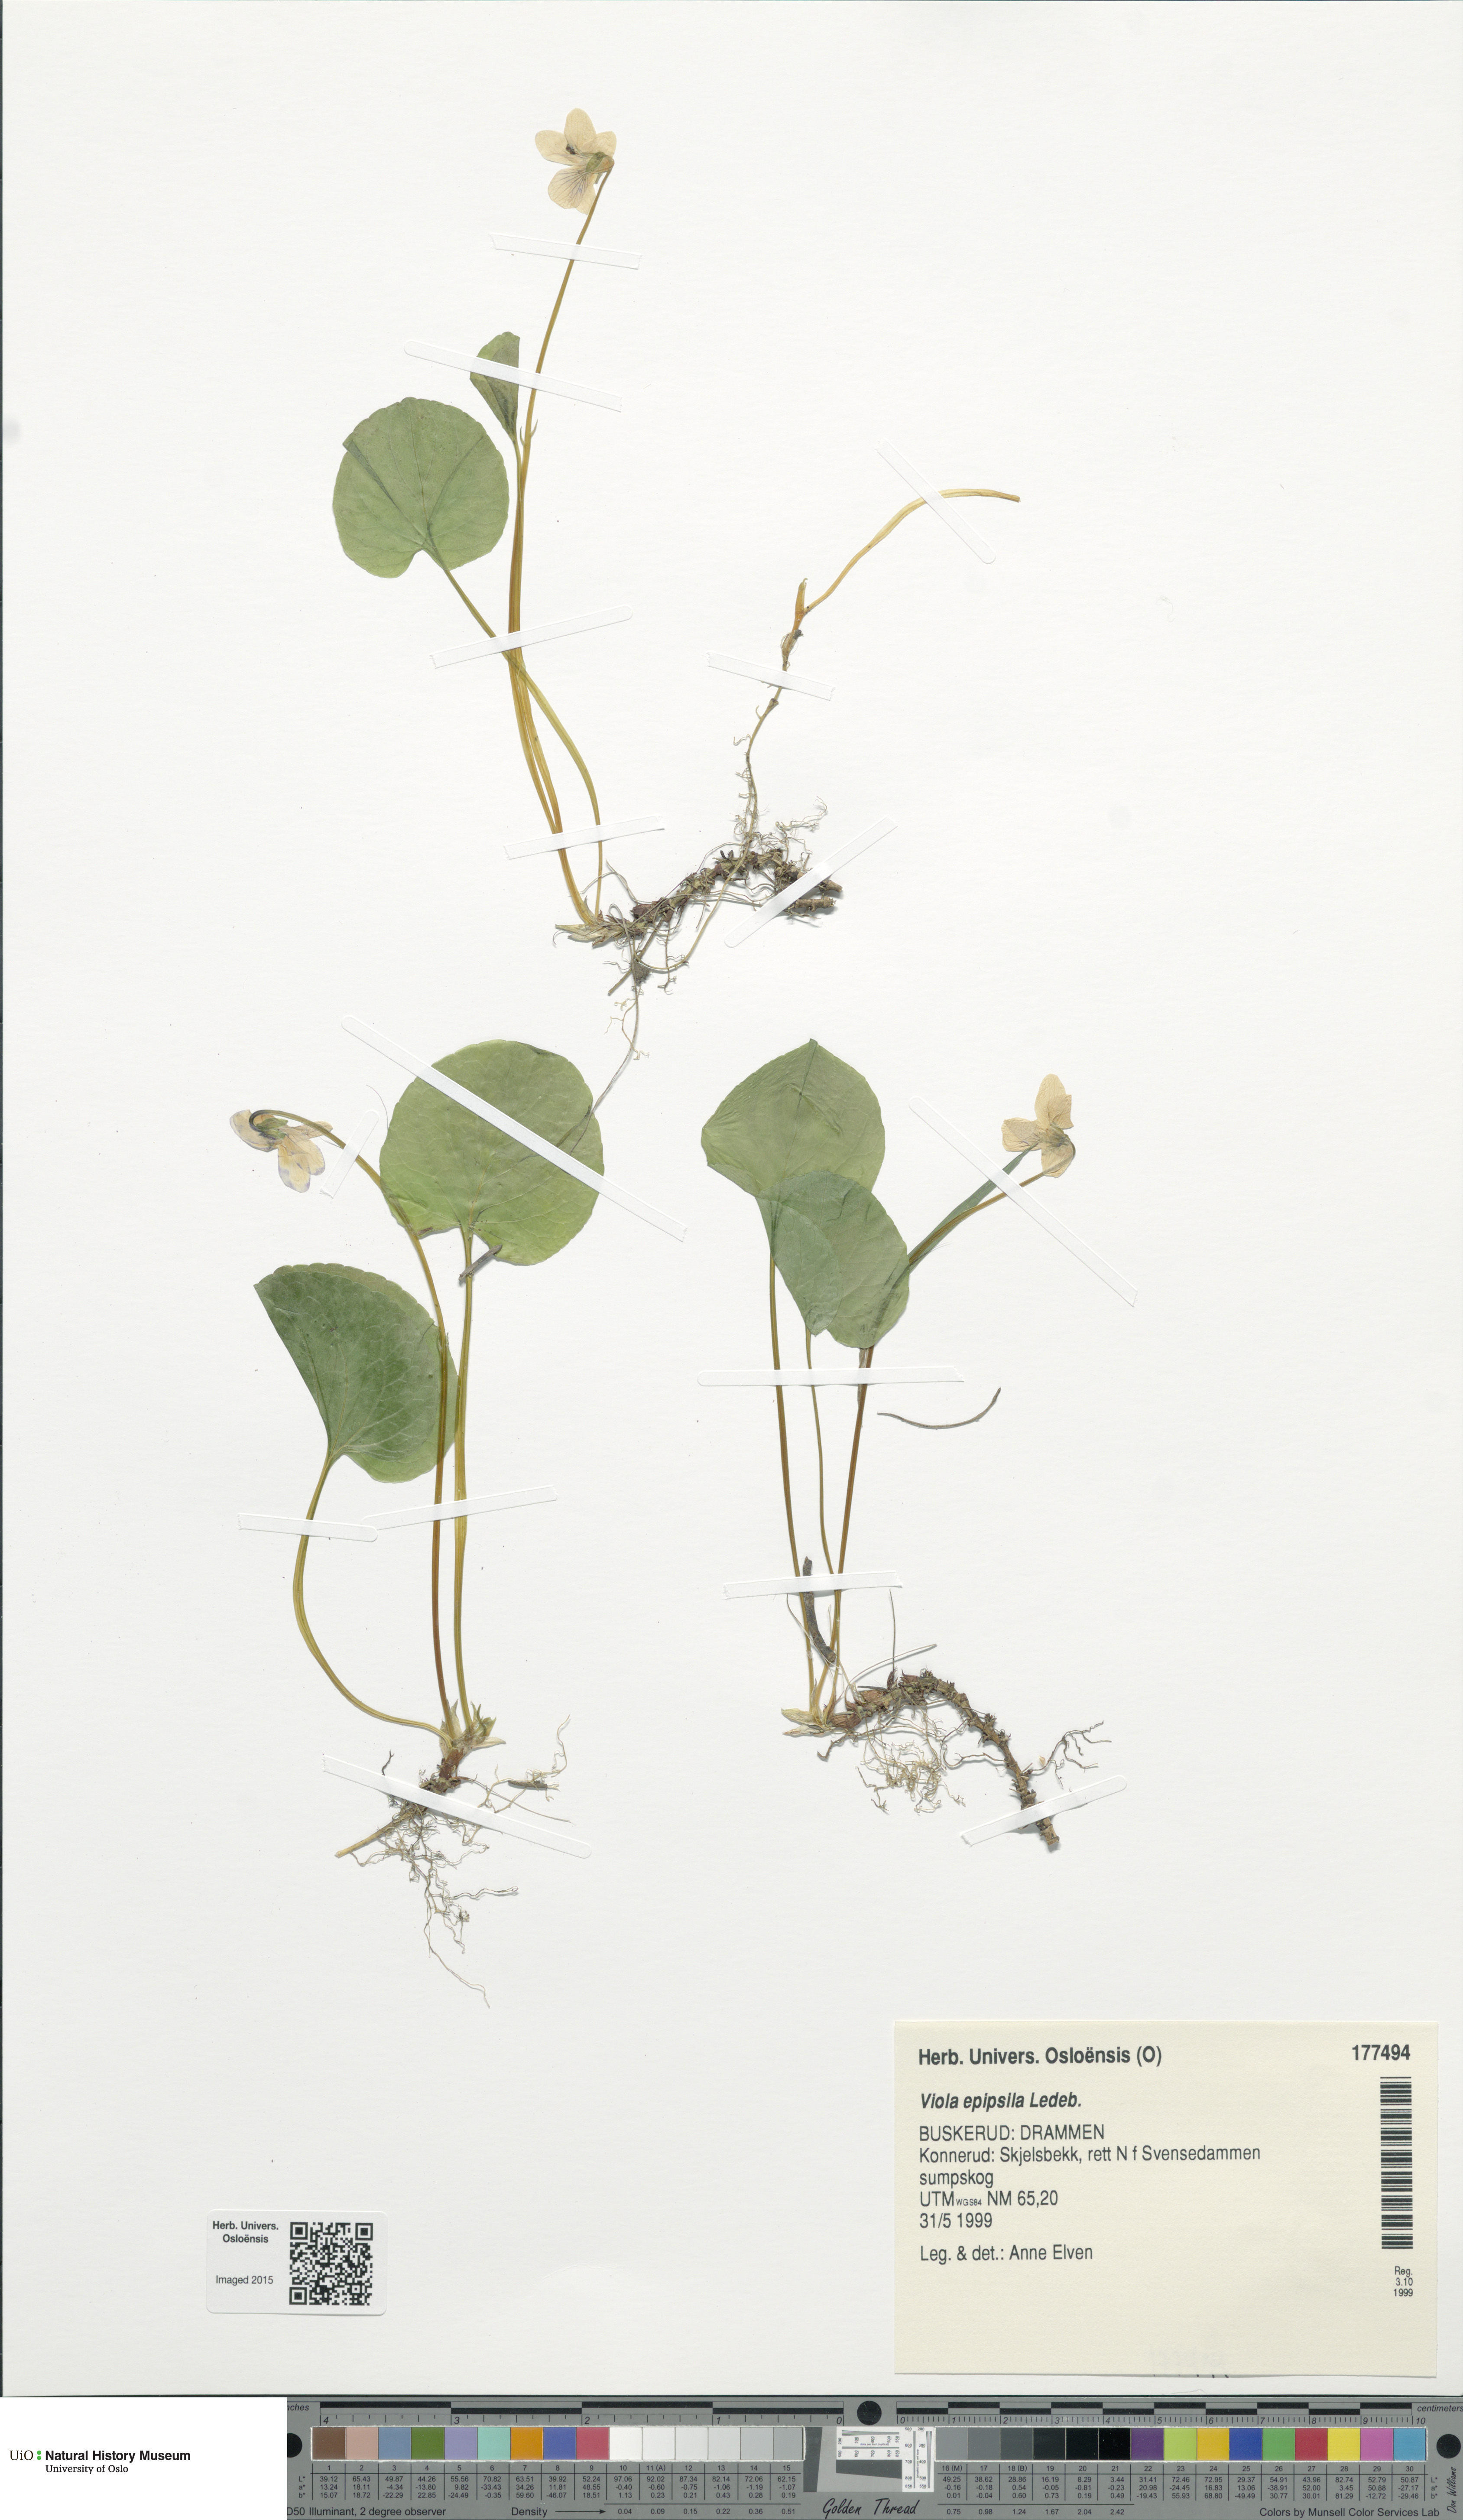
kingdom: Plantae
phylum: Tracheophyta
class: Magnoliopsida
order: Malpighiales
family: Violaceae
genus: Viola
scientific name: Viola epipsila
